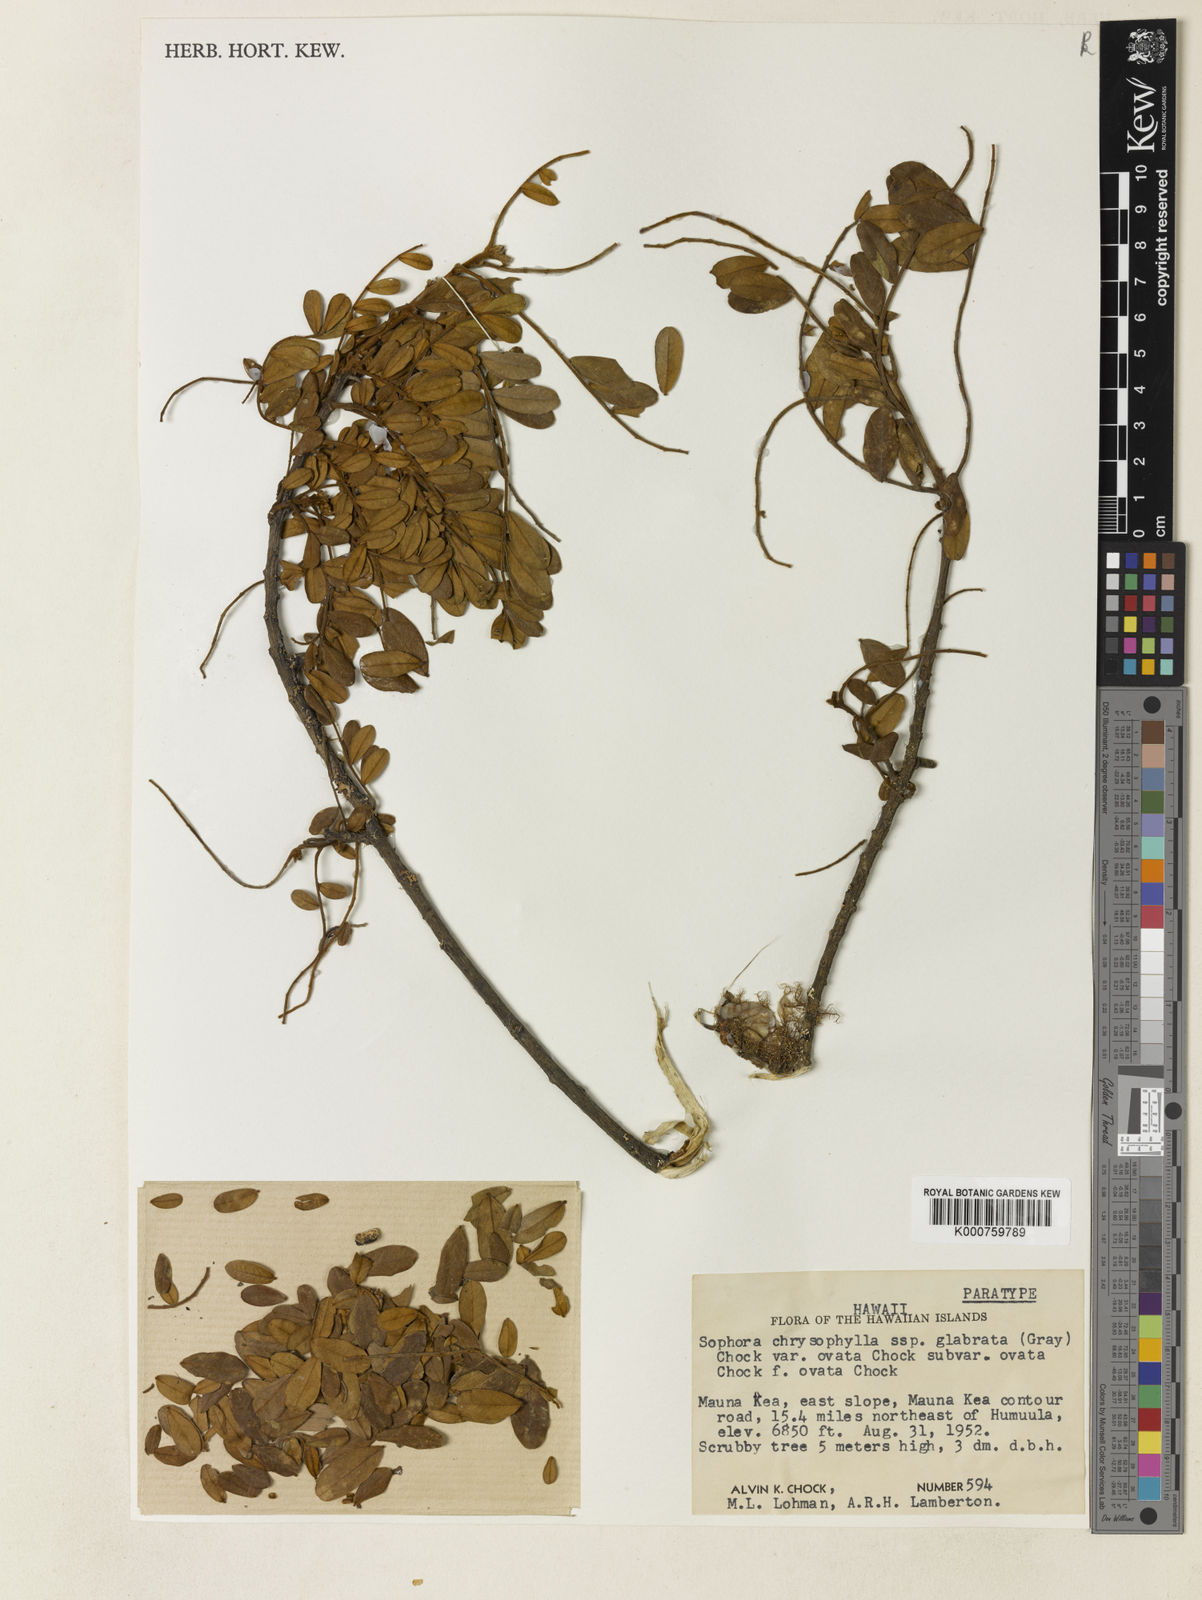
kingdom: Plantae
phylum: Tracheophyta
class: Magnoliopsida
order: Fabales
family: Fabaceae
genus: Sophora
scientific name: Sophora chrysophylla
